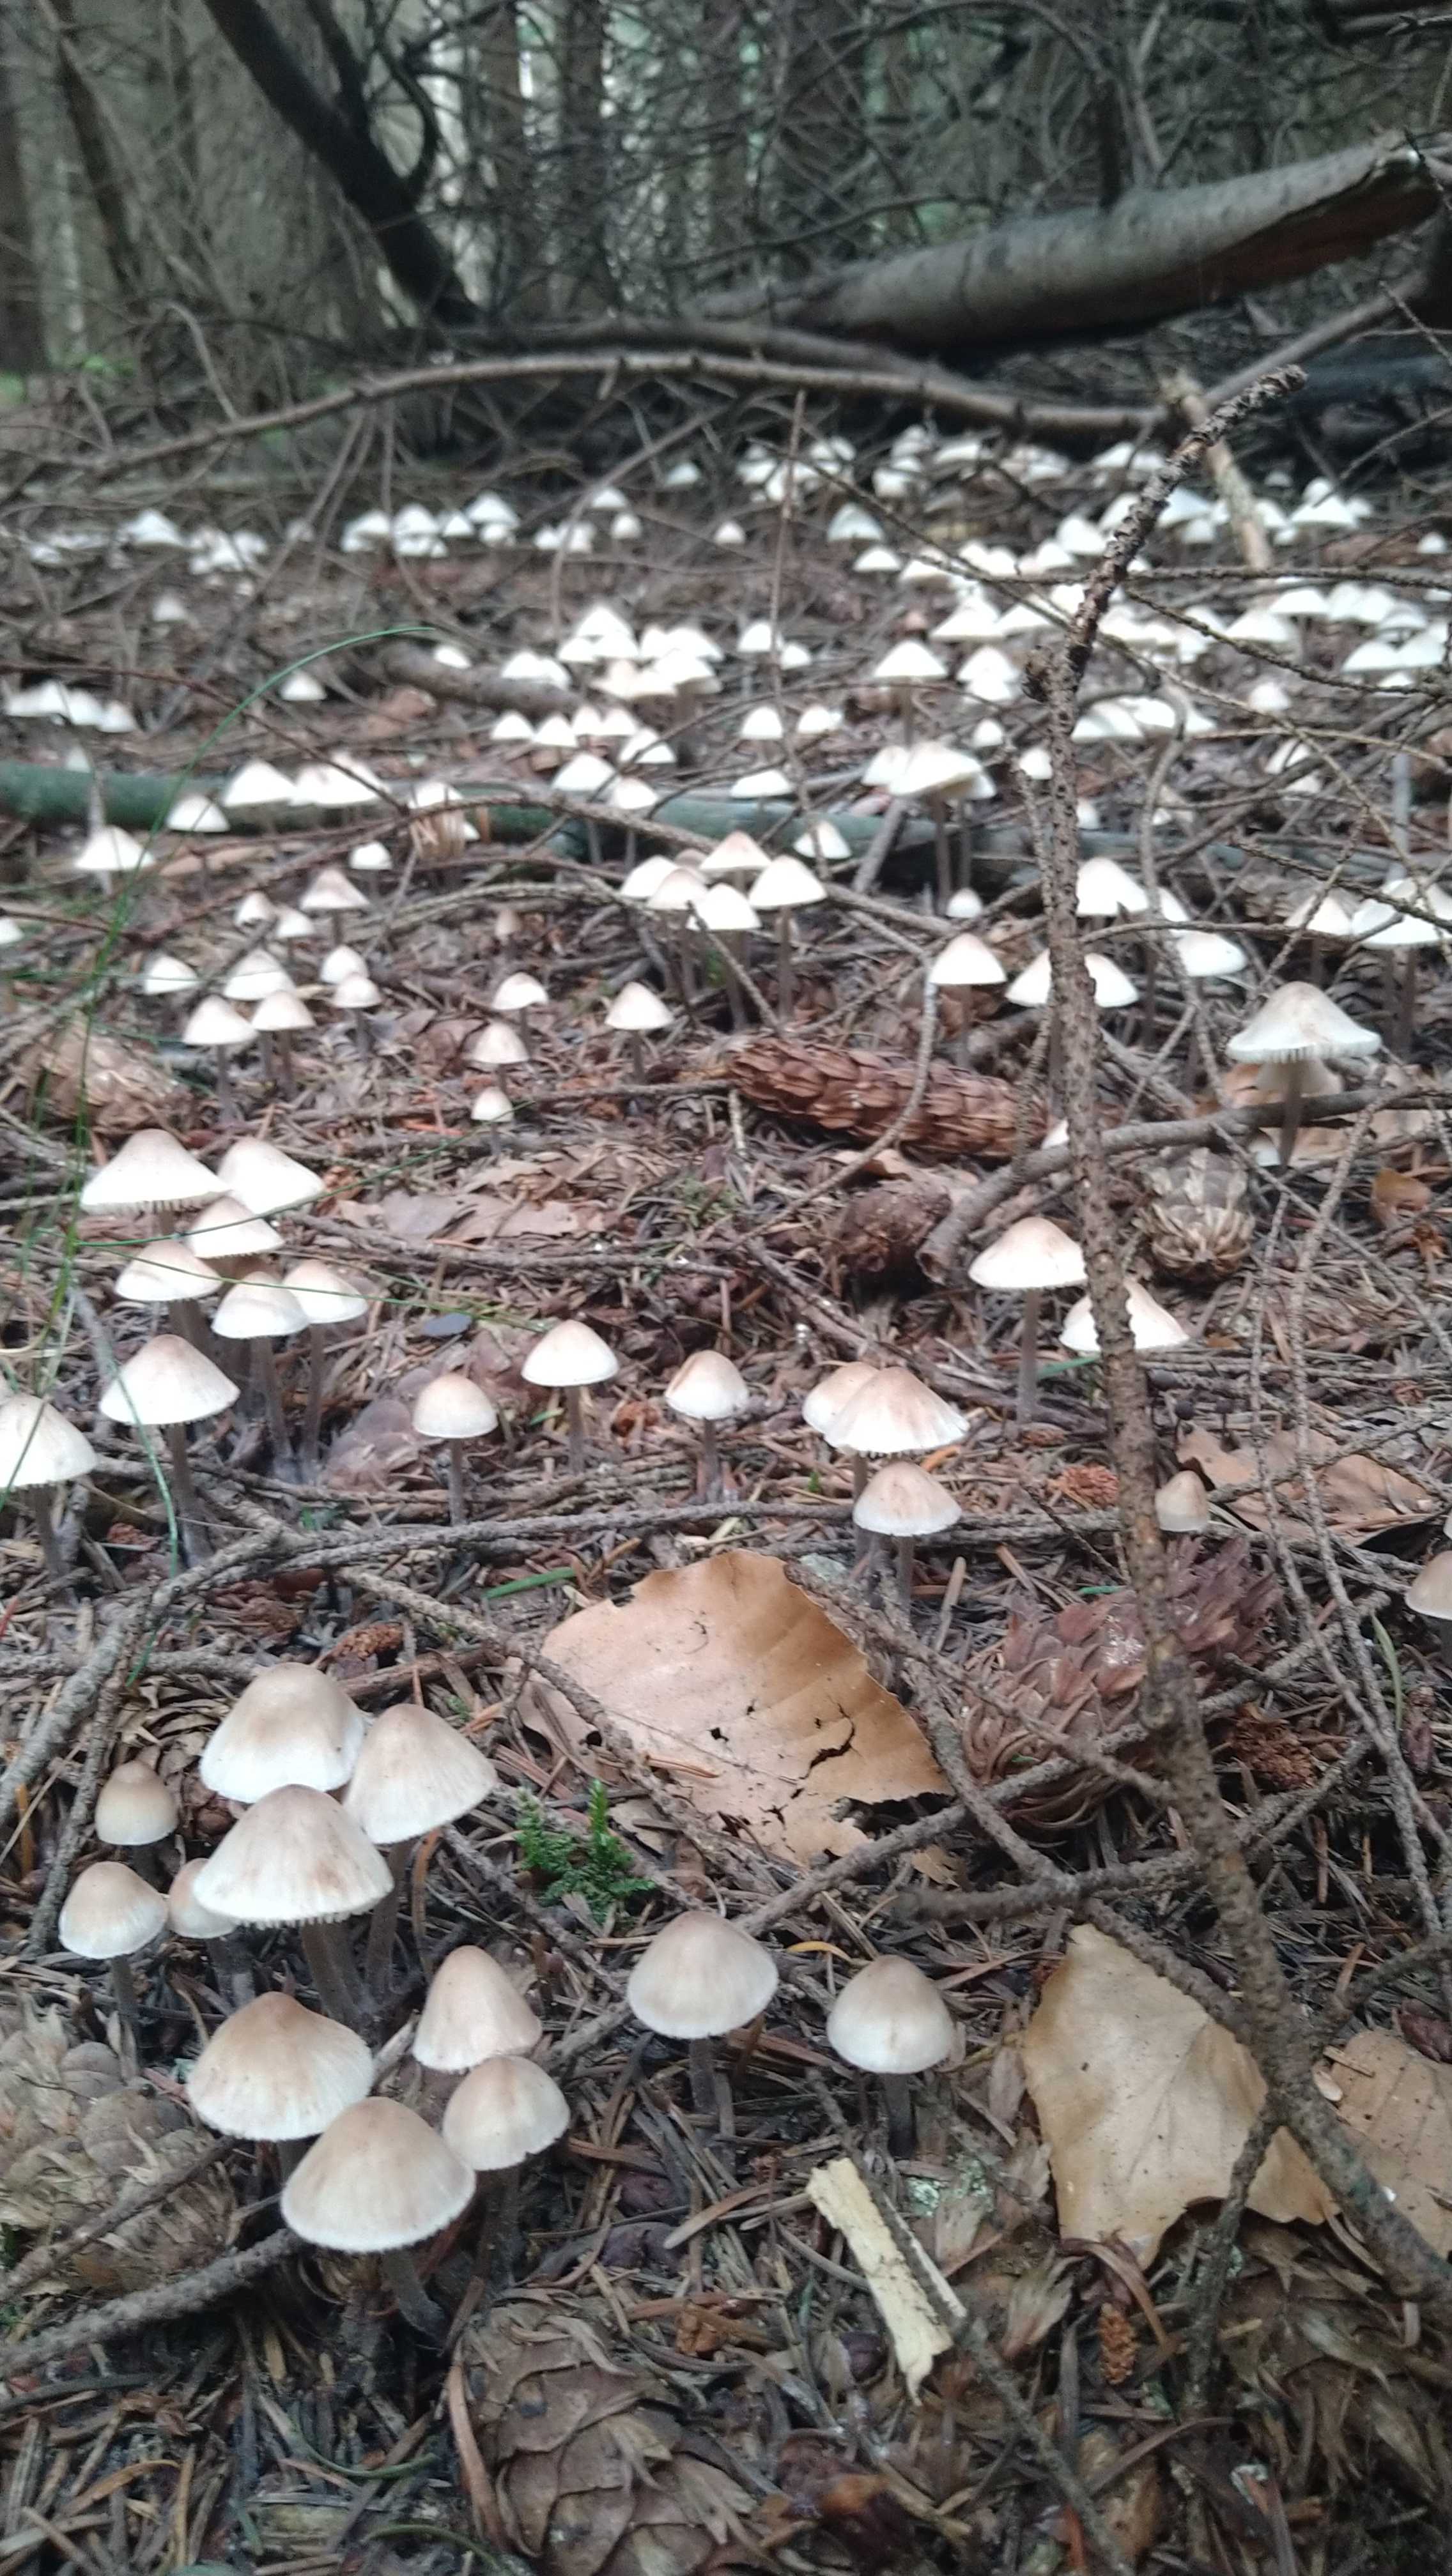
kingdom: Fungi
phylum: Basidiomycota
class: Agaricomycetes
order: Agaricales
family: Mycenaceae
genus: Mycena
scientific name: Mycena
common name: huesvamp
